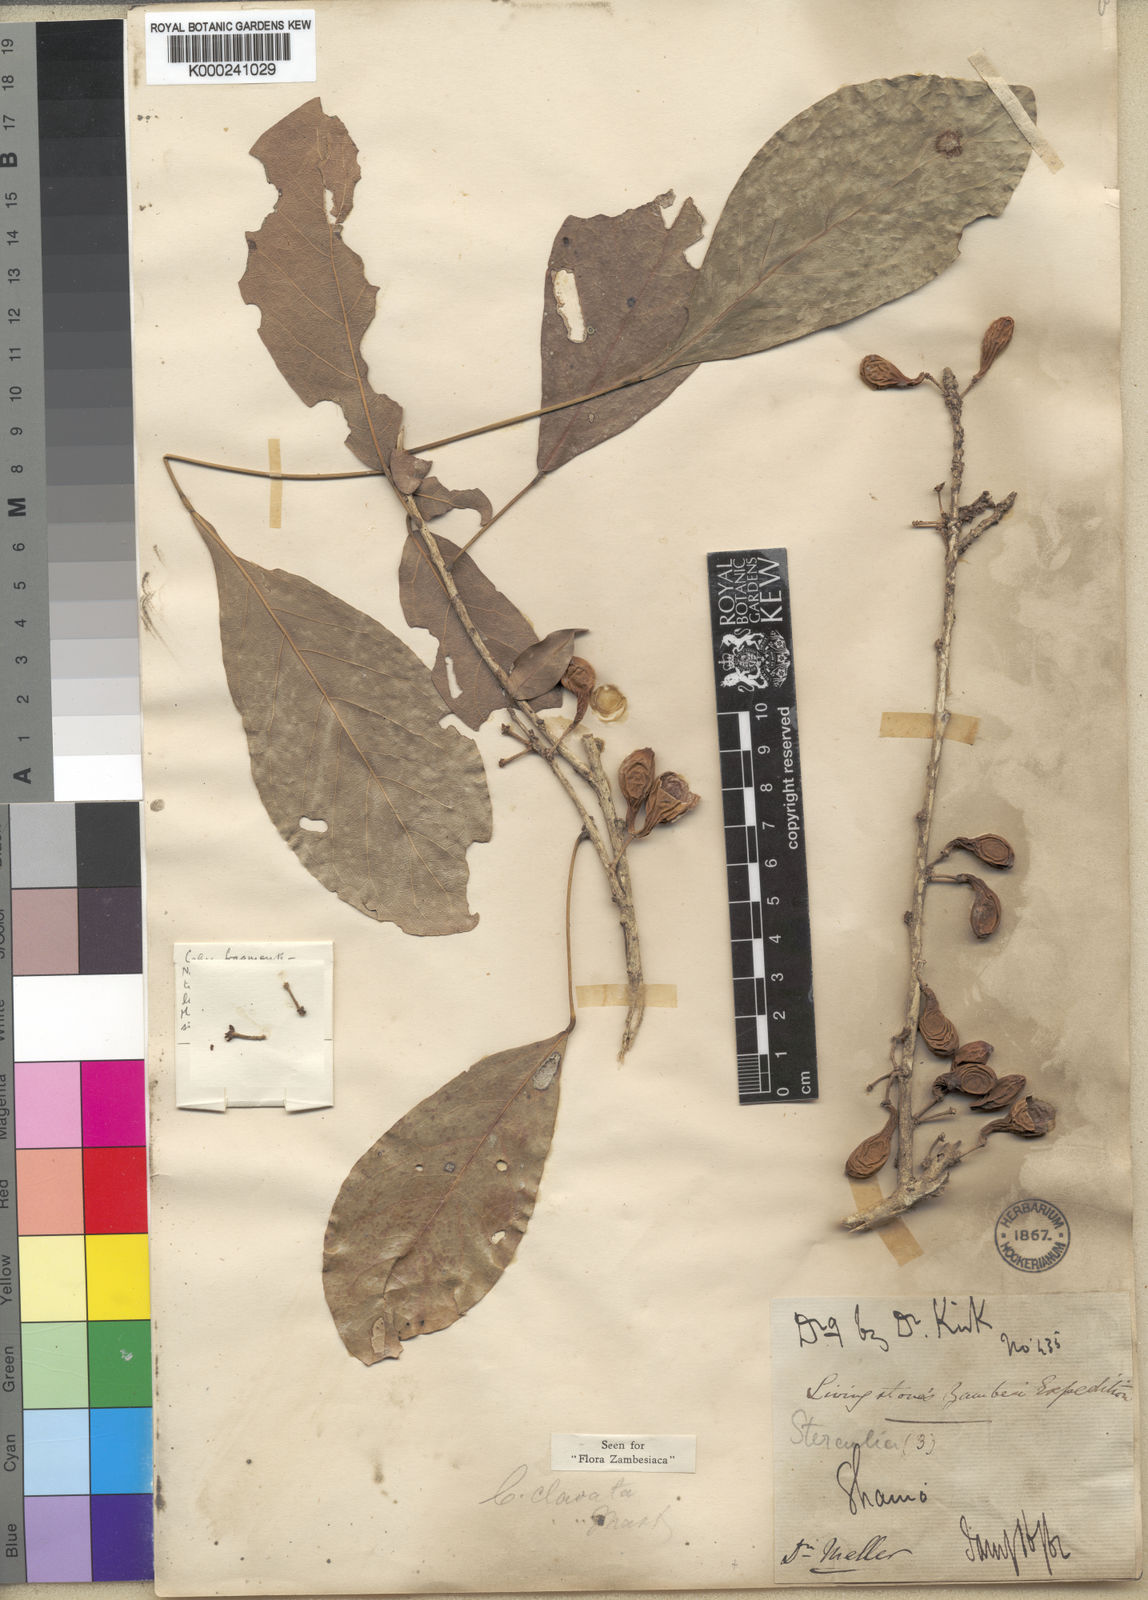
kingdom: Plantae
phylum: Tracheophyta
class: Magnoliopsida
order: Malvales
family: Malvaceae
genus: Cola
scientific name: Cola clavata
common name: Club-fruited cola
